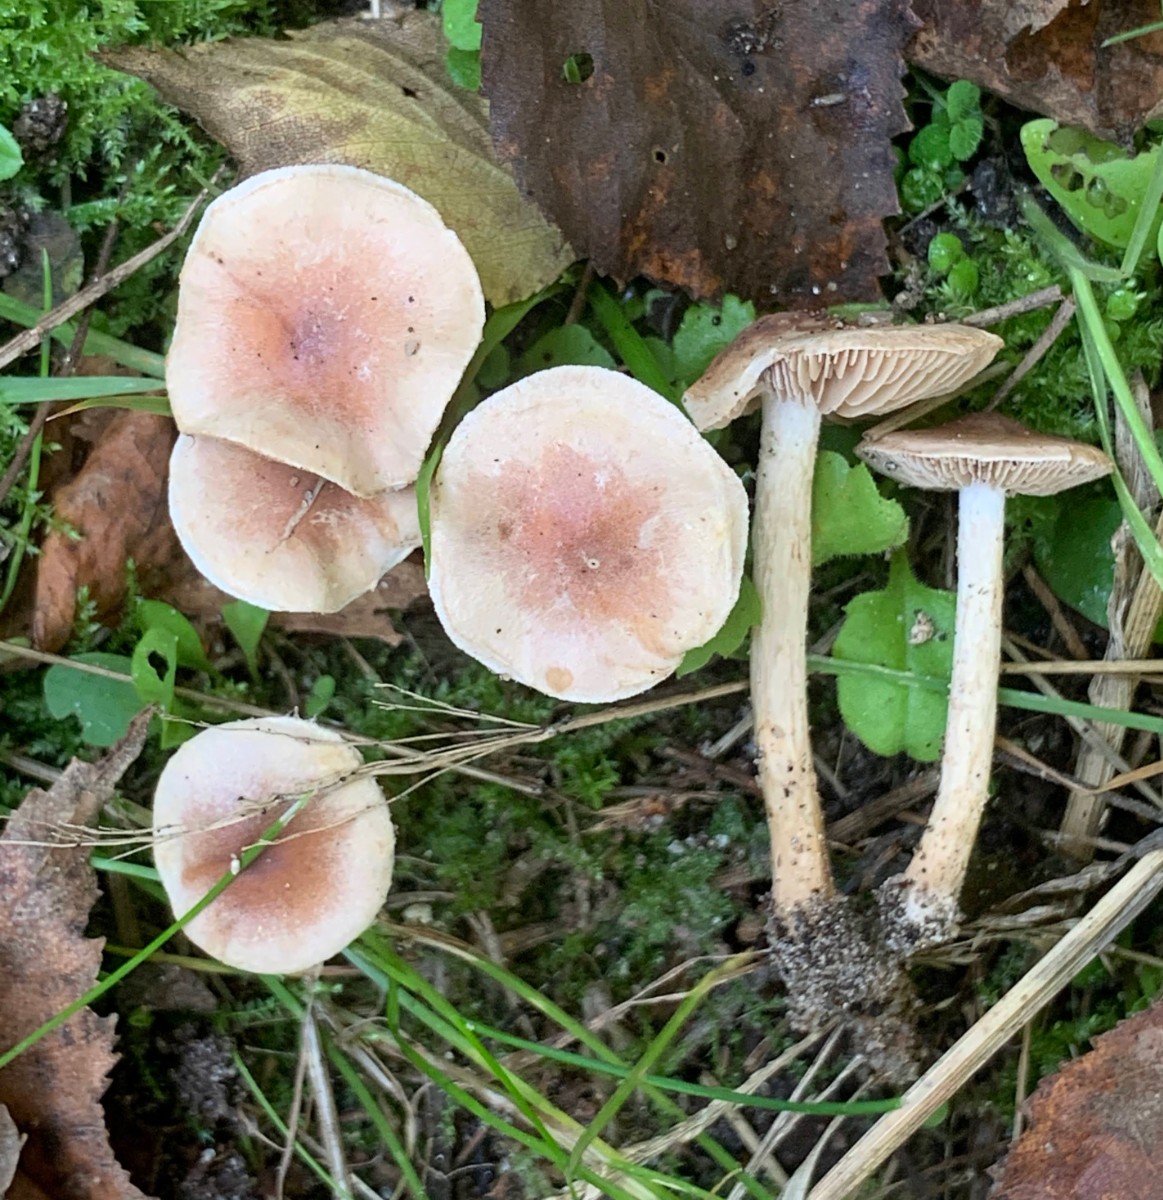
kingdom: Fungi
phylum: Basidiomycota
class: Agaricomycetes
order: Agaricales
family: Hymenogastraceae
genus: Hebeloma
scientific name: Hebeloma mesophaeum
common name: lerbrun tåreblad
